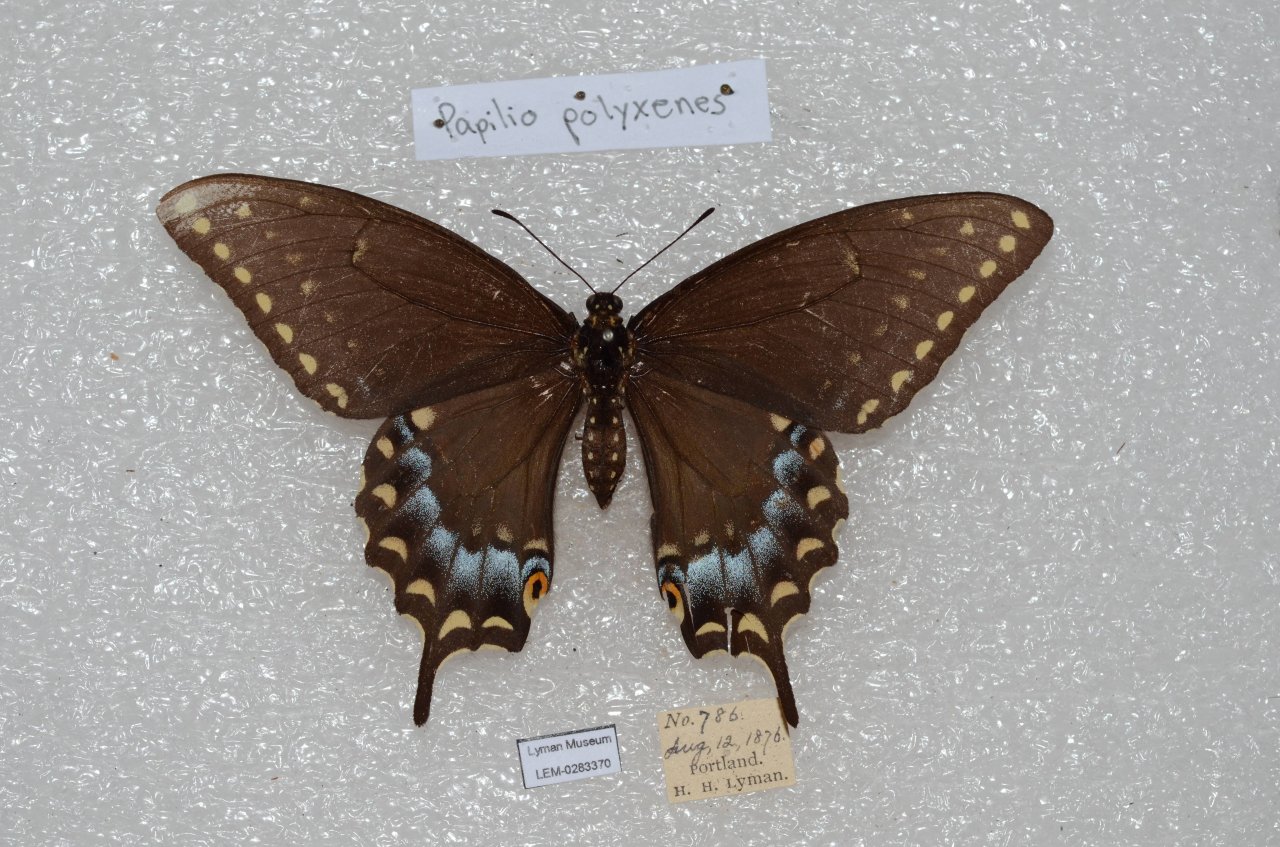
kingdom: Animalia
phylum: Arthropoda
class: Insecta
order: Lepidoptera
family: Papilionidae
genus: Papilio
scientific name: Papilio polyxenes
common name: Black Swallowtail
